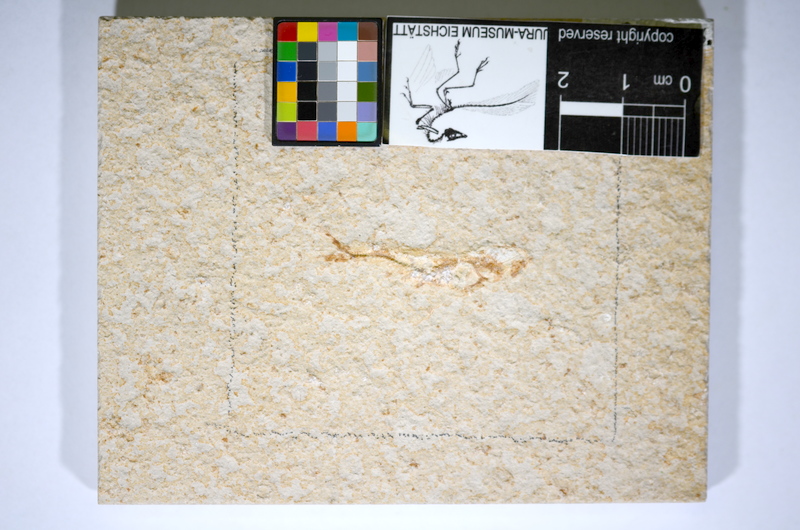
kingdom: Animalia
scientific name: Animalia
